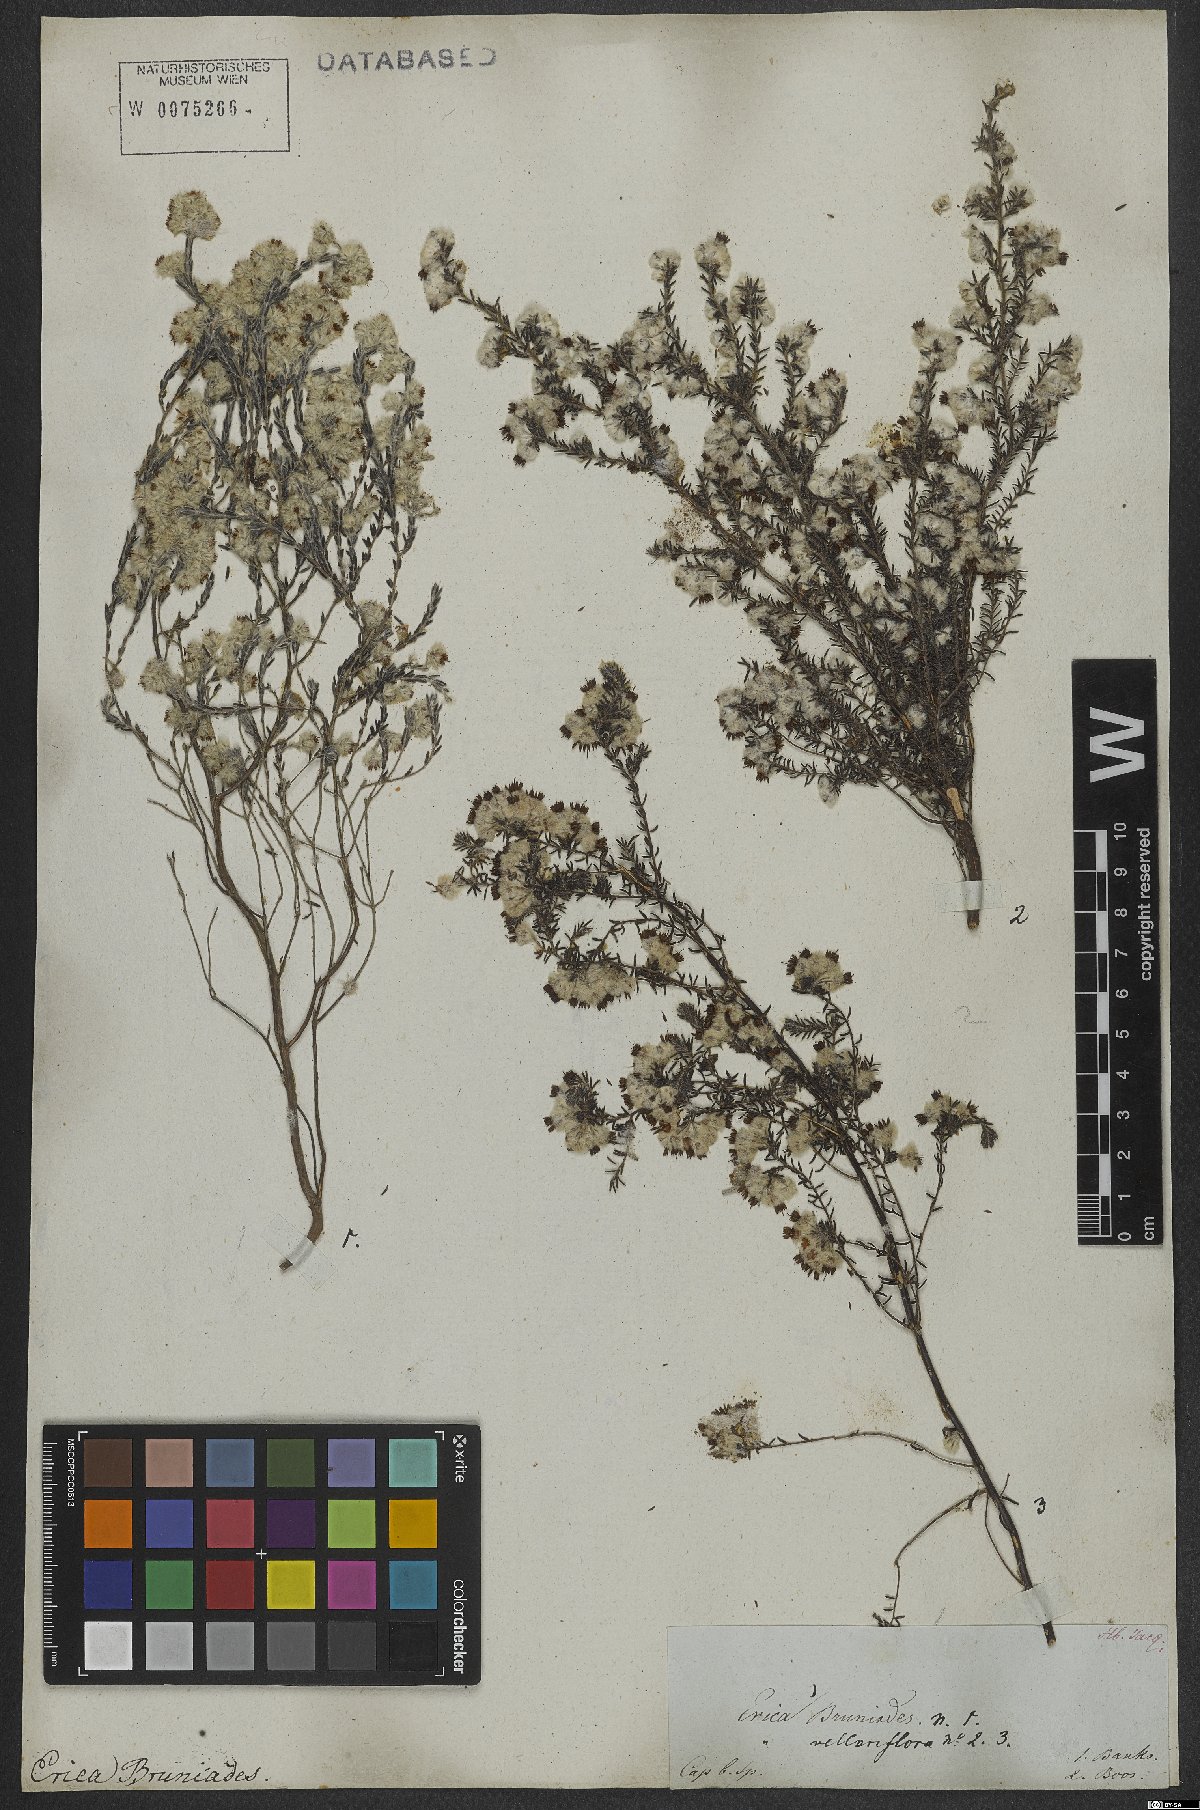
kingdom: Plantae
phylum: Tracheophyta
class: Magnoliopsida
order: Ericales
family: Ericaceae
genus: Erica
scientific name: Erica bruniades
